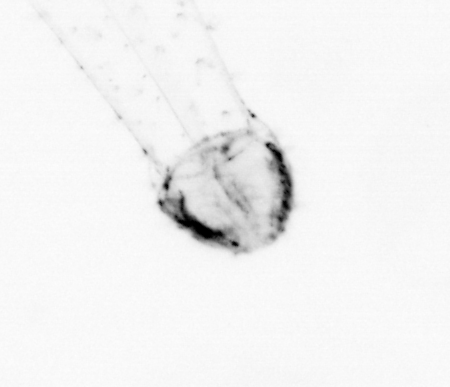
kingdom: Animalia
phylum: Chaetognatha
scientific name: Chaetognatha
